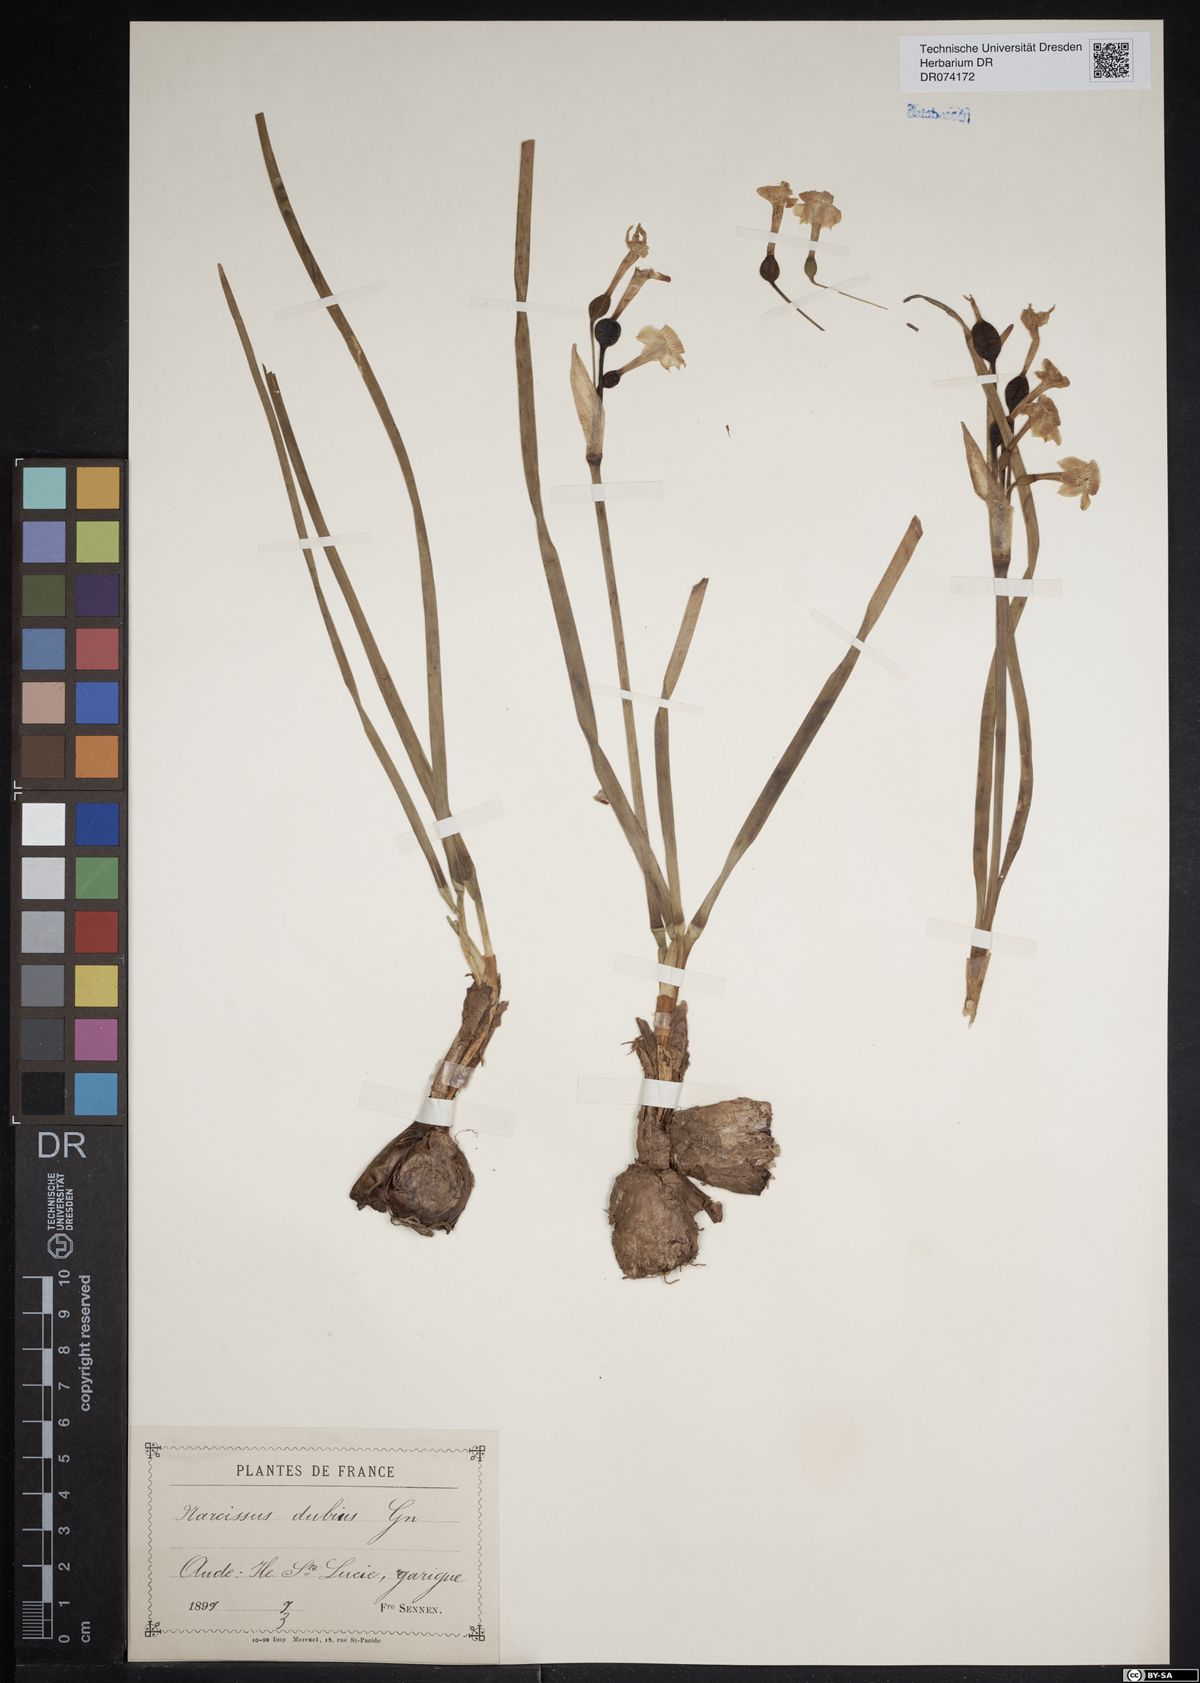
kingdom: Plantae
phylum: Tracheophyta
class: Liliopsida
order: Asparagales
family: Amaryllidaceae
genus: Narcissus
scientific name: Narcissus dubius
